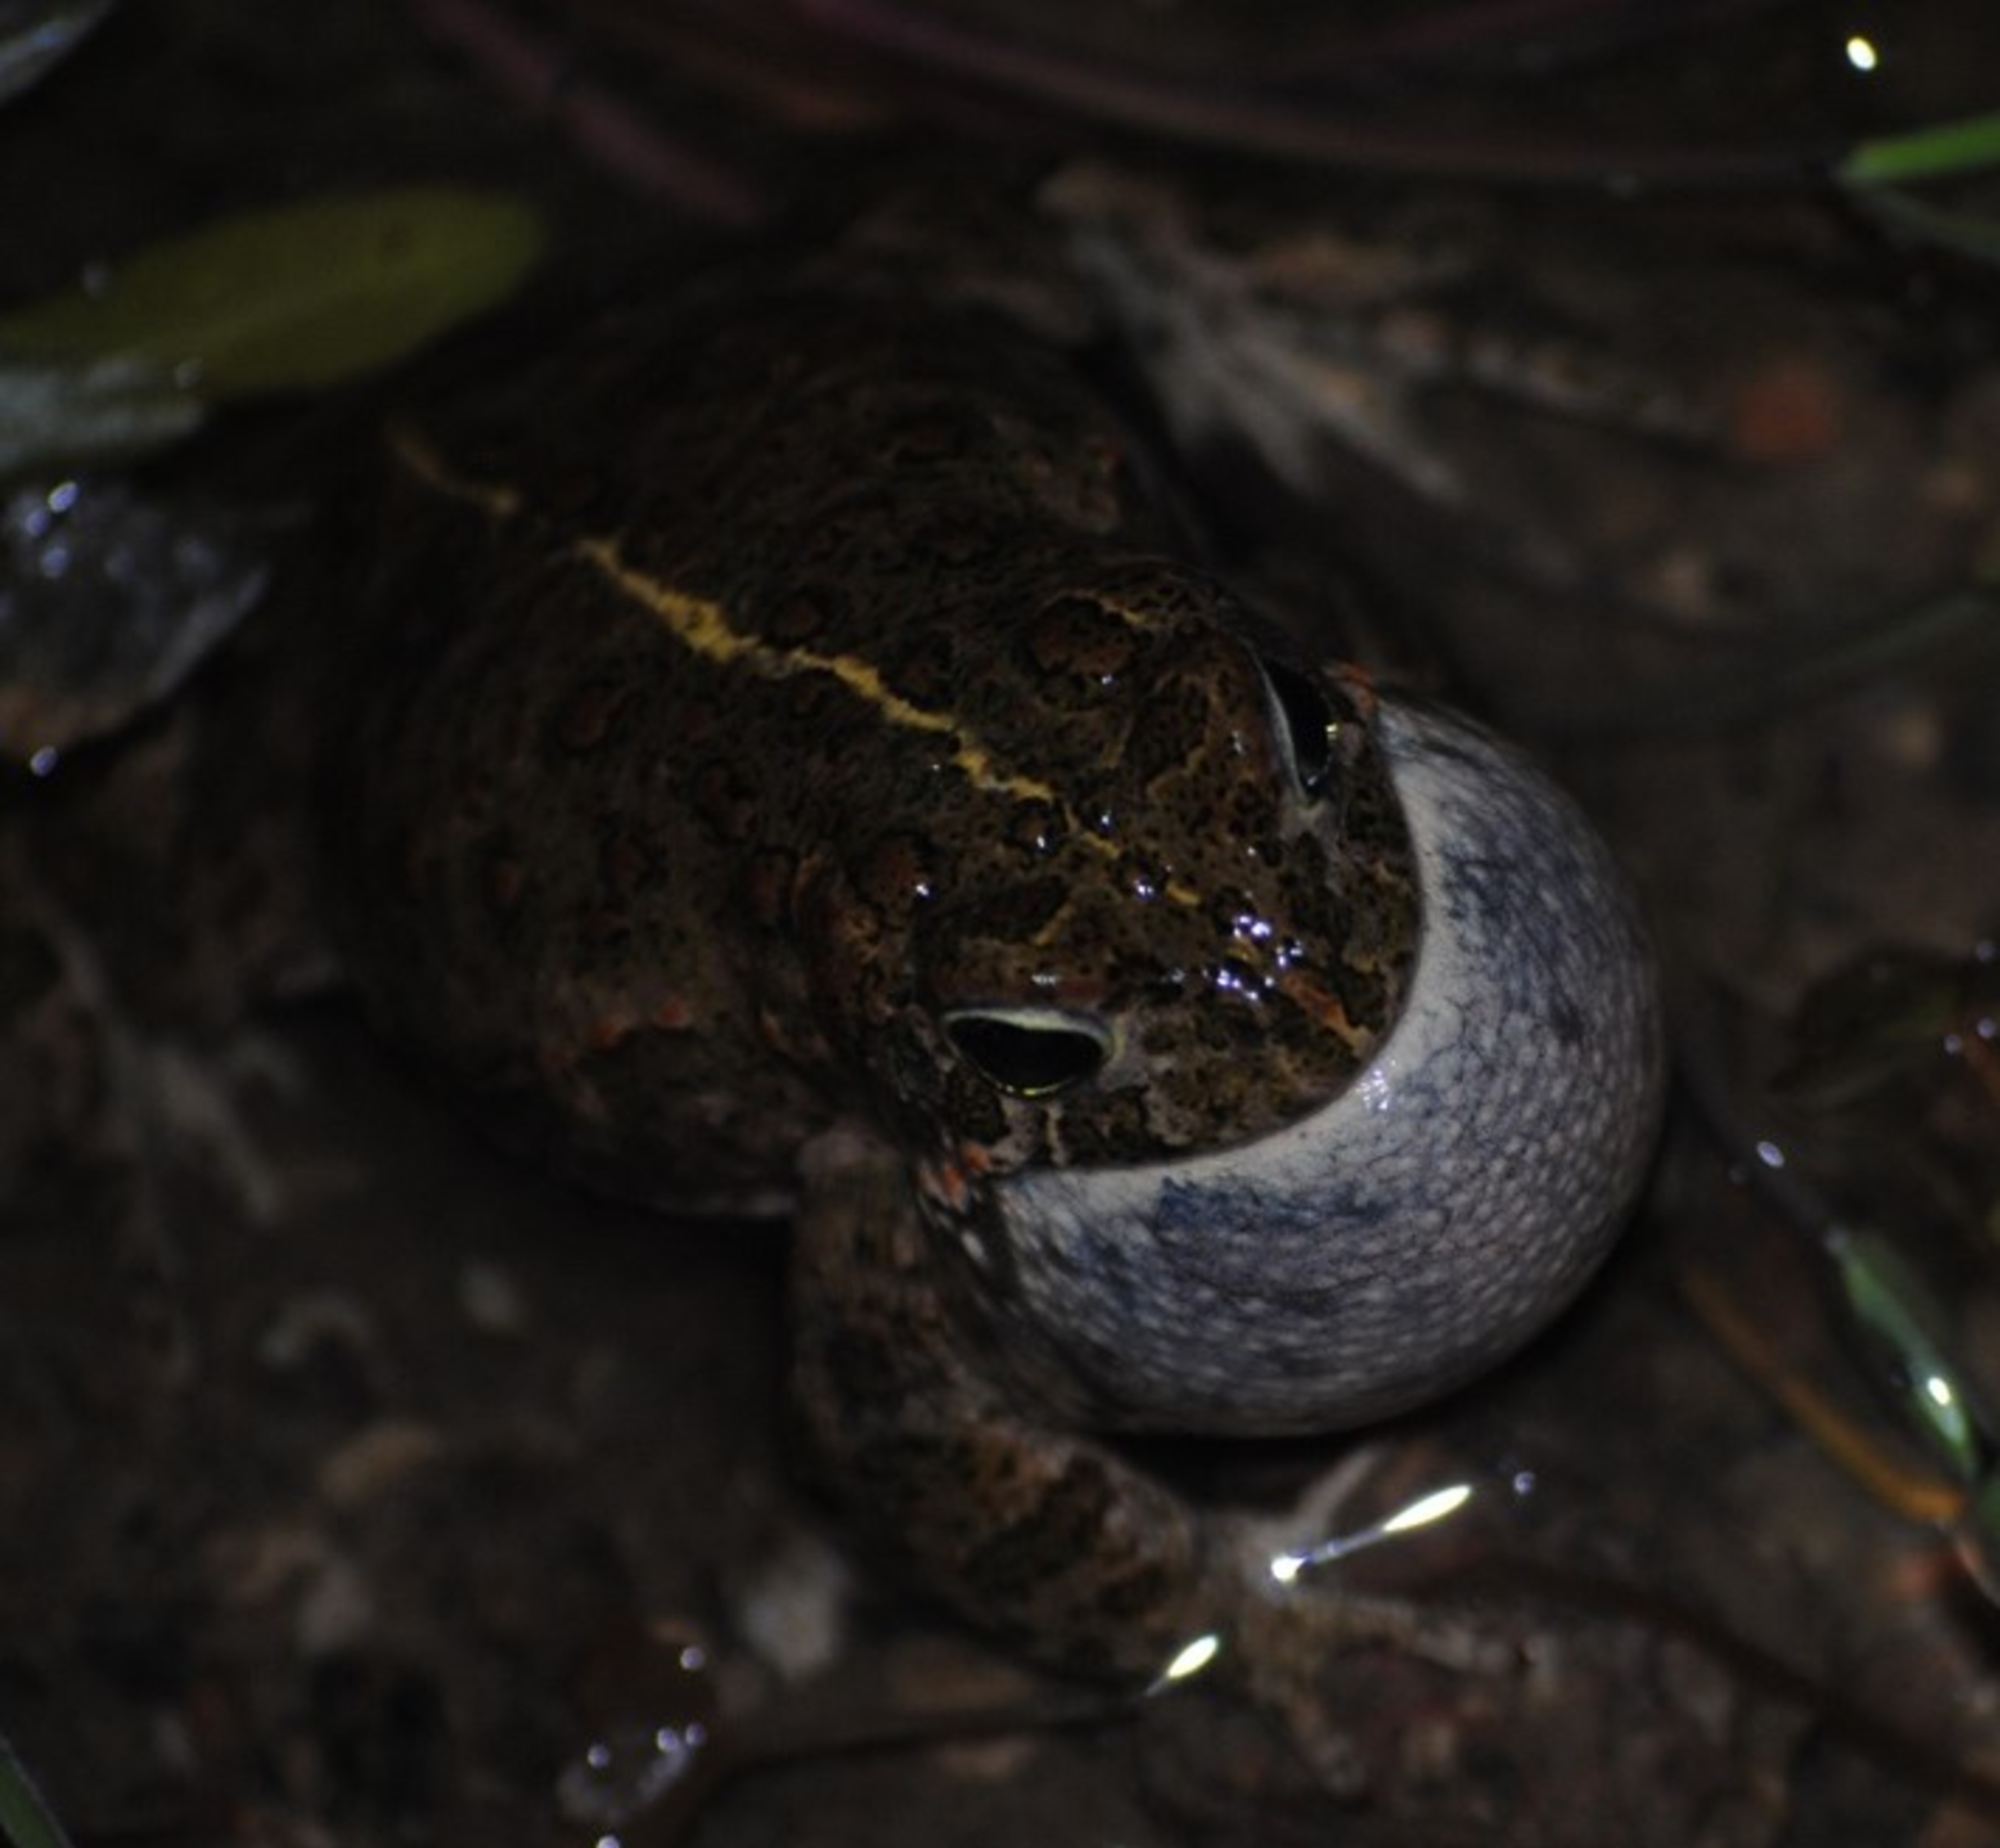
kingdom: Animalia
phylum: Chordata
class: Amphibia
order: Anura
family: Bufonidae
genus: Epidalea
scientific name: Epidalea calamita
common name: Strandtudse
